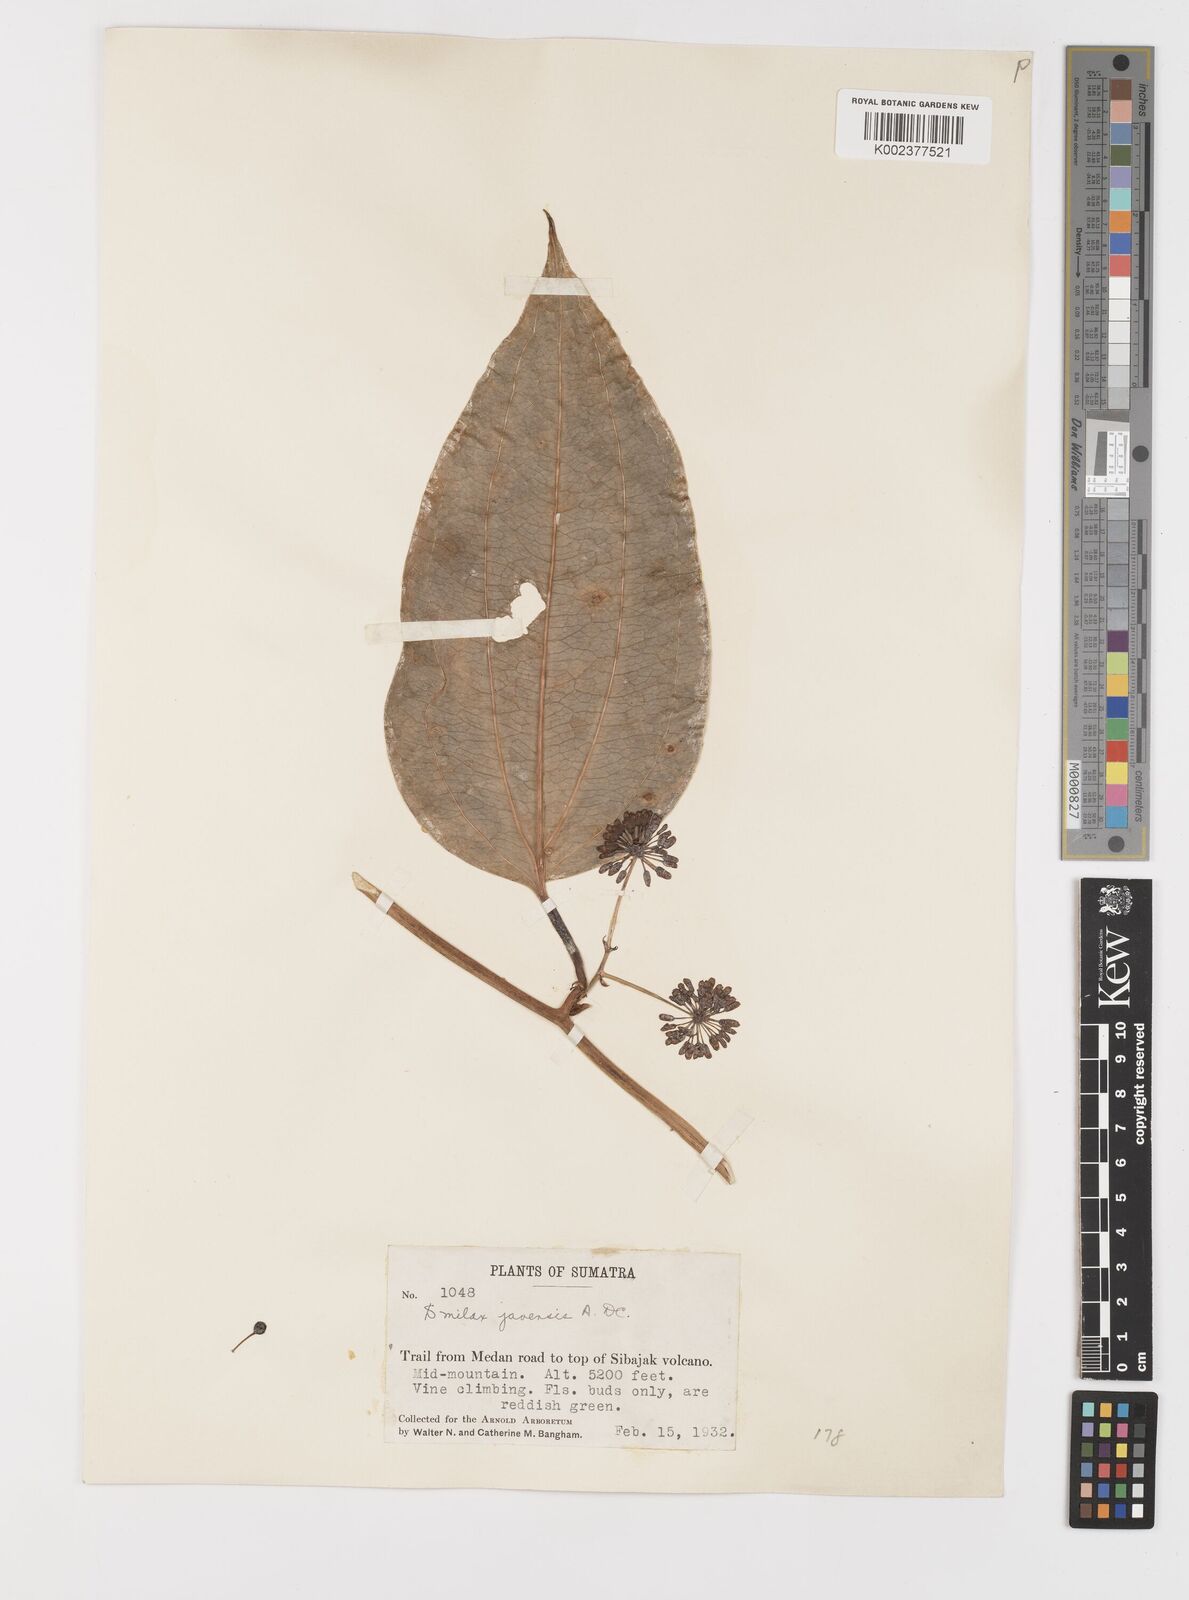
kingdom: Plantae
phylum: Tracheophyta
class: Liliopsida
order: Liliales
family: Smilacaceae
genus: Smilax
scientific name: Smilax javensis
